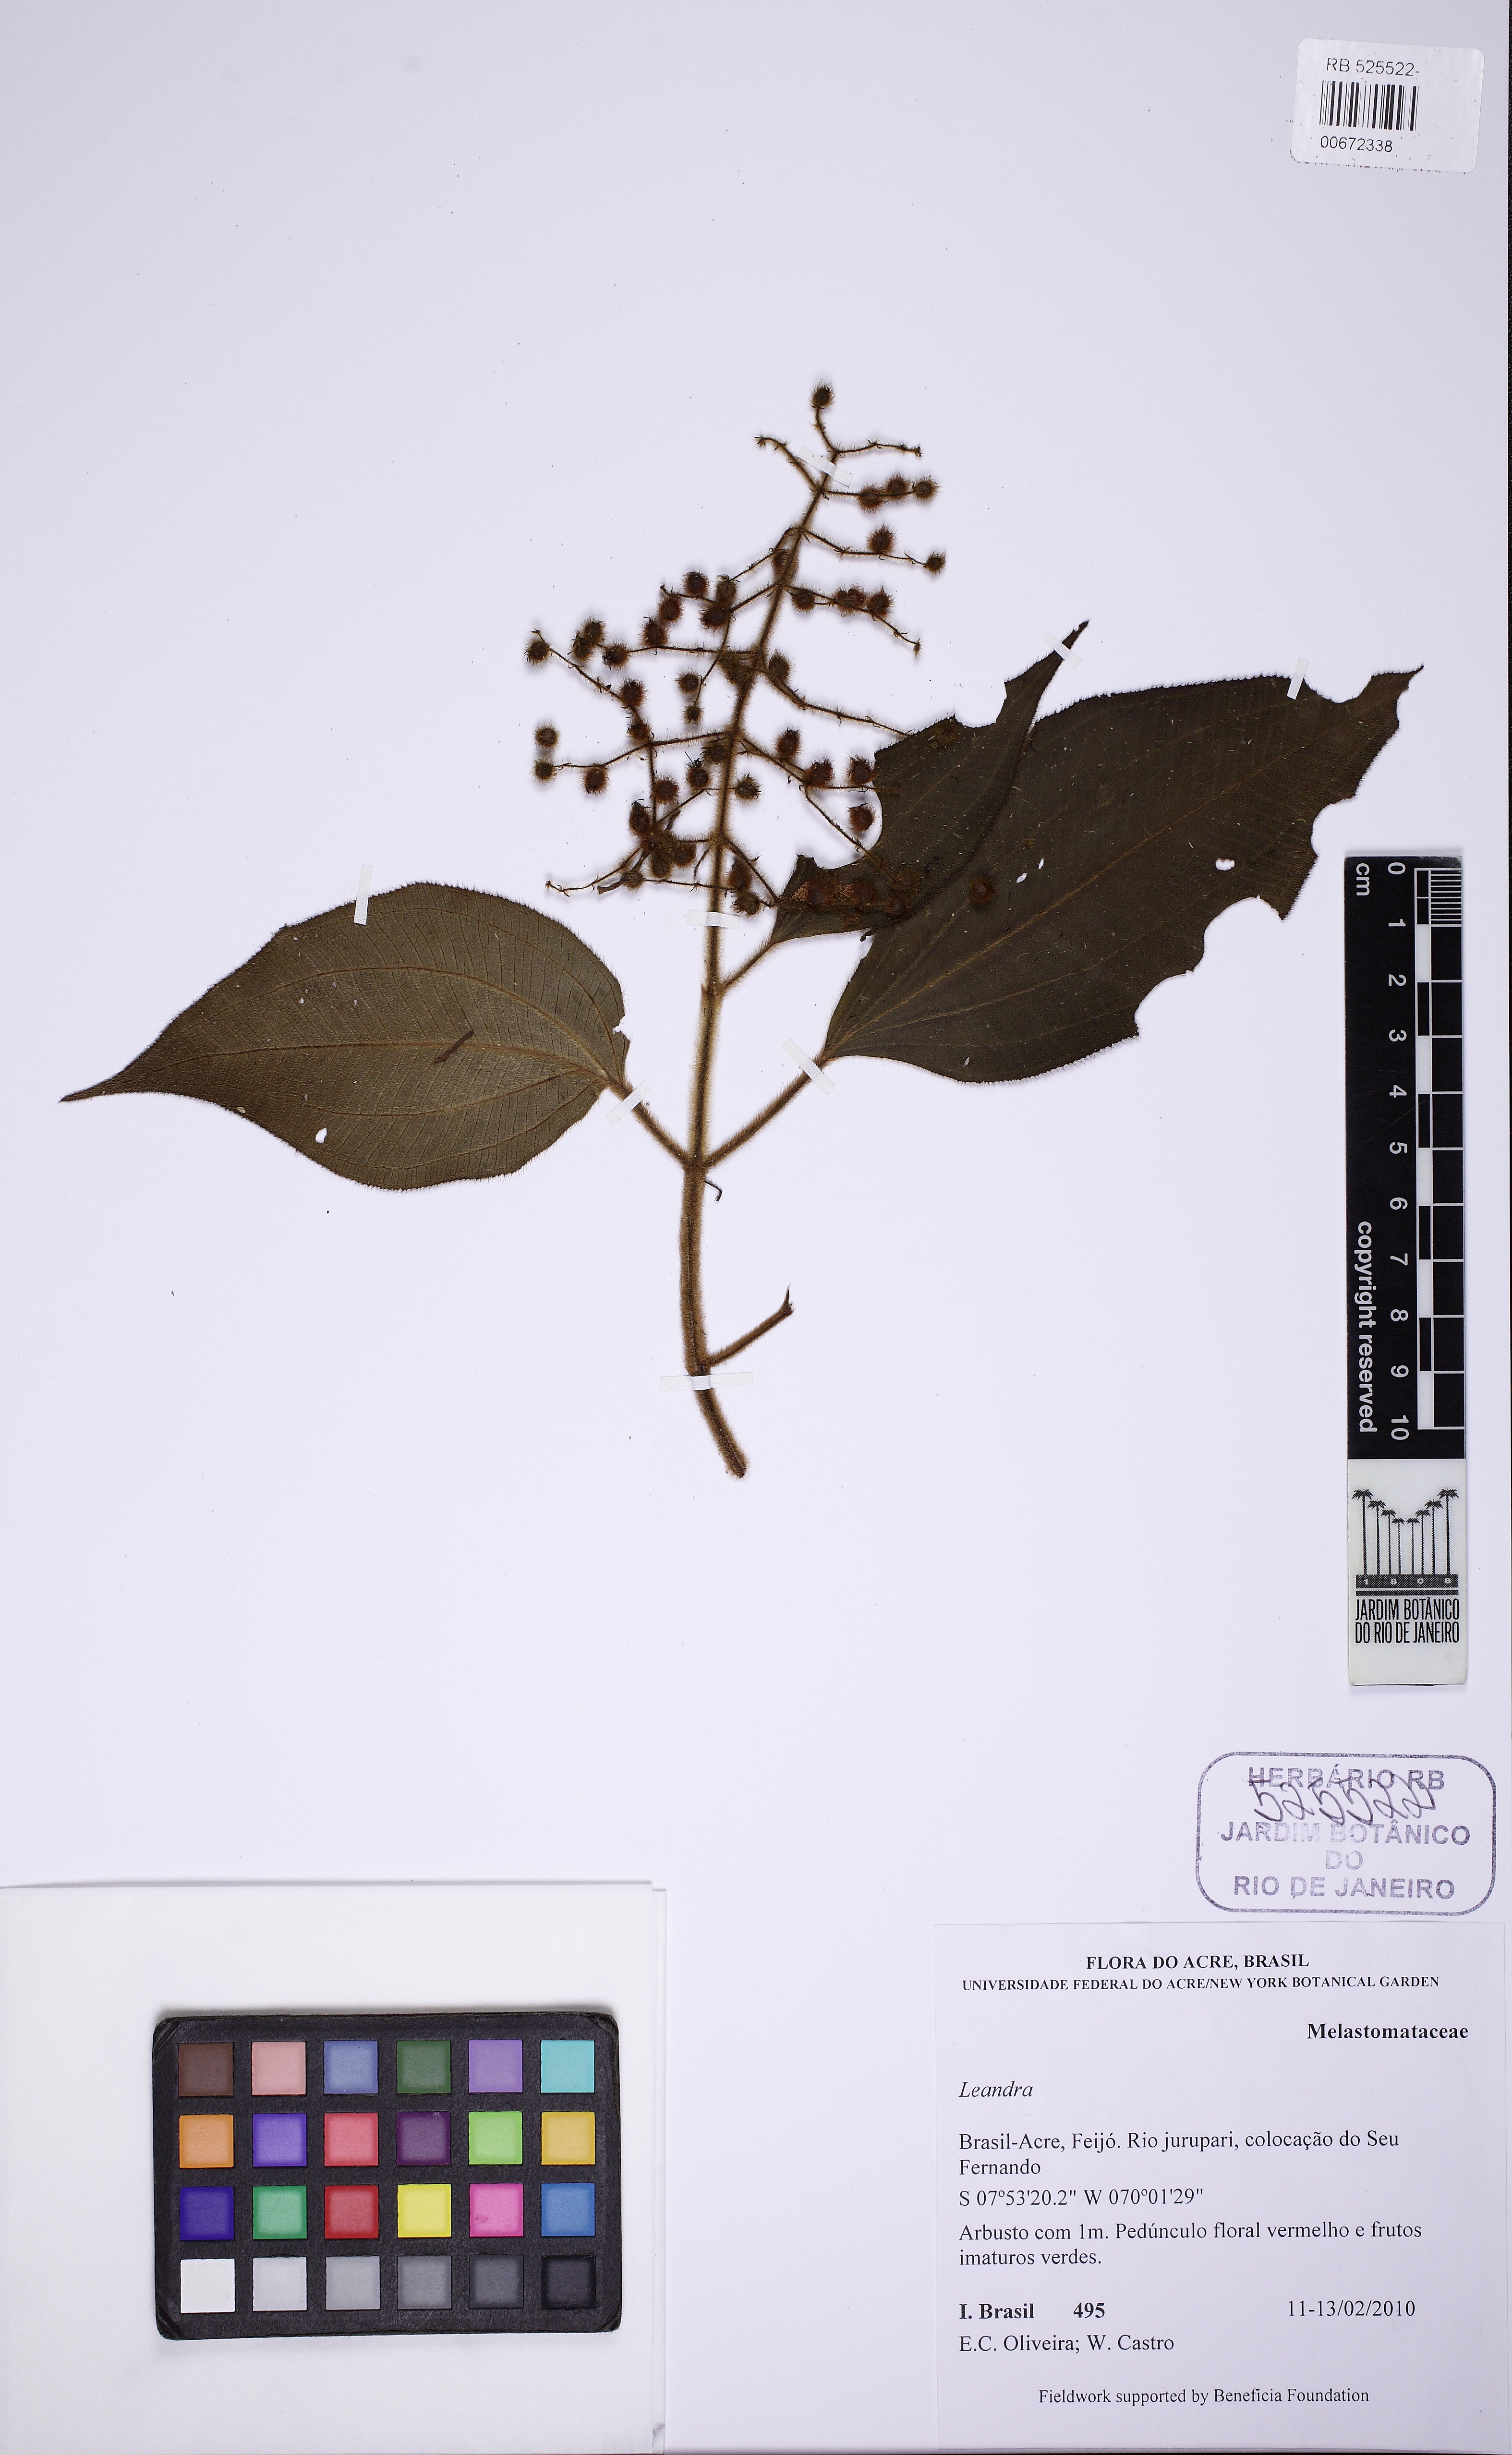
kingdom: Plantae
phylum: Tracheophyta
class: Magnoliopsida
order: Myrtales
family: Melastomataceae
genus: Miconia
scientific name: Miconia
